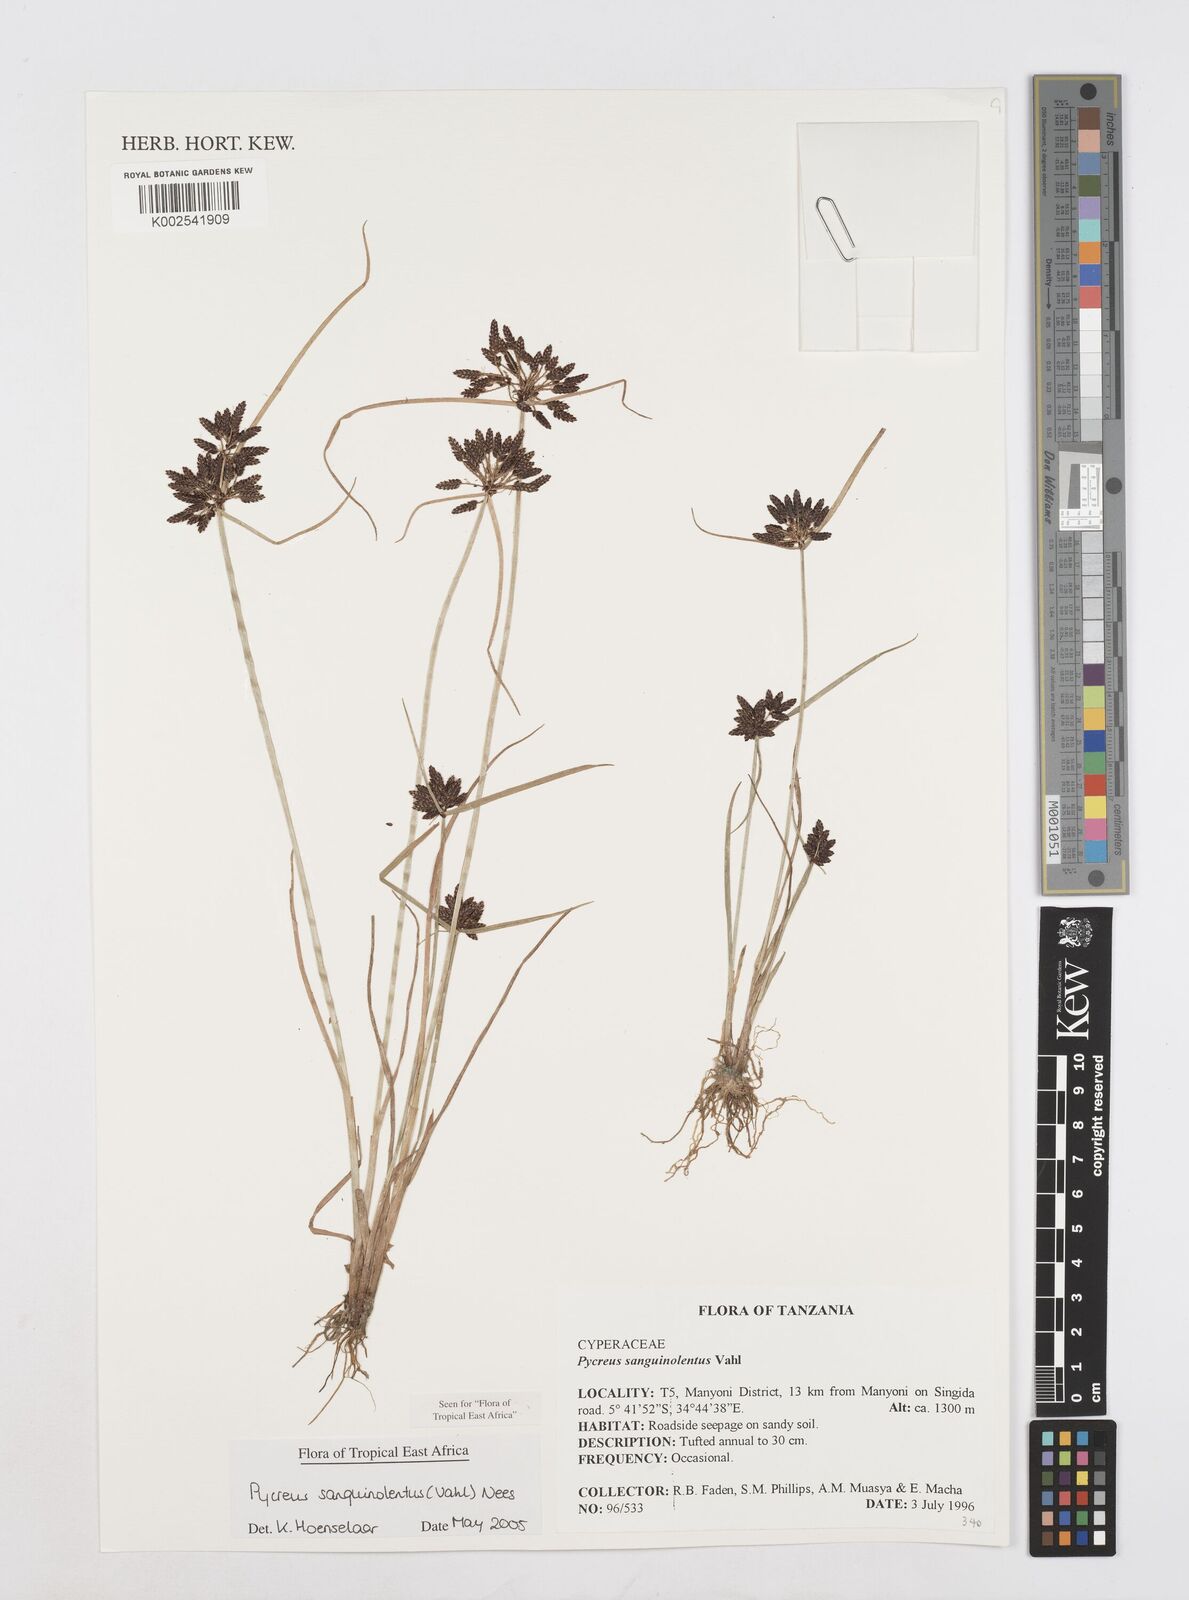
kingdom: Plantae
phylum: Tracheophyta
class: Liliopsida
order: Poales
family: Cyperaceae
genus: Cyperus
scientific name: Cyperus sanguinolentus
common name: Purpleglume flatsedge
